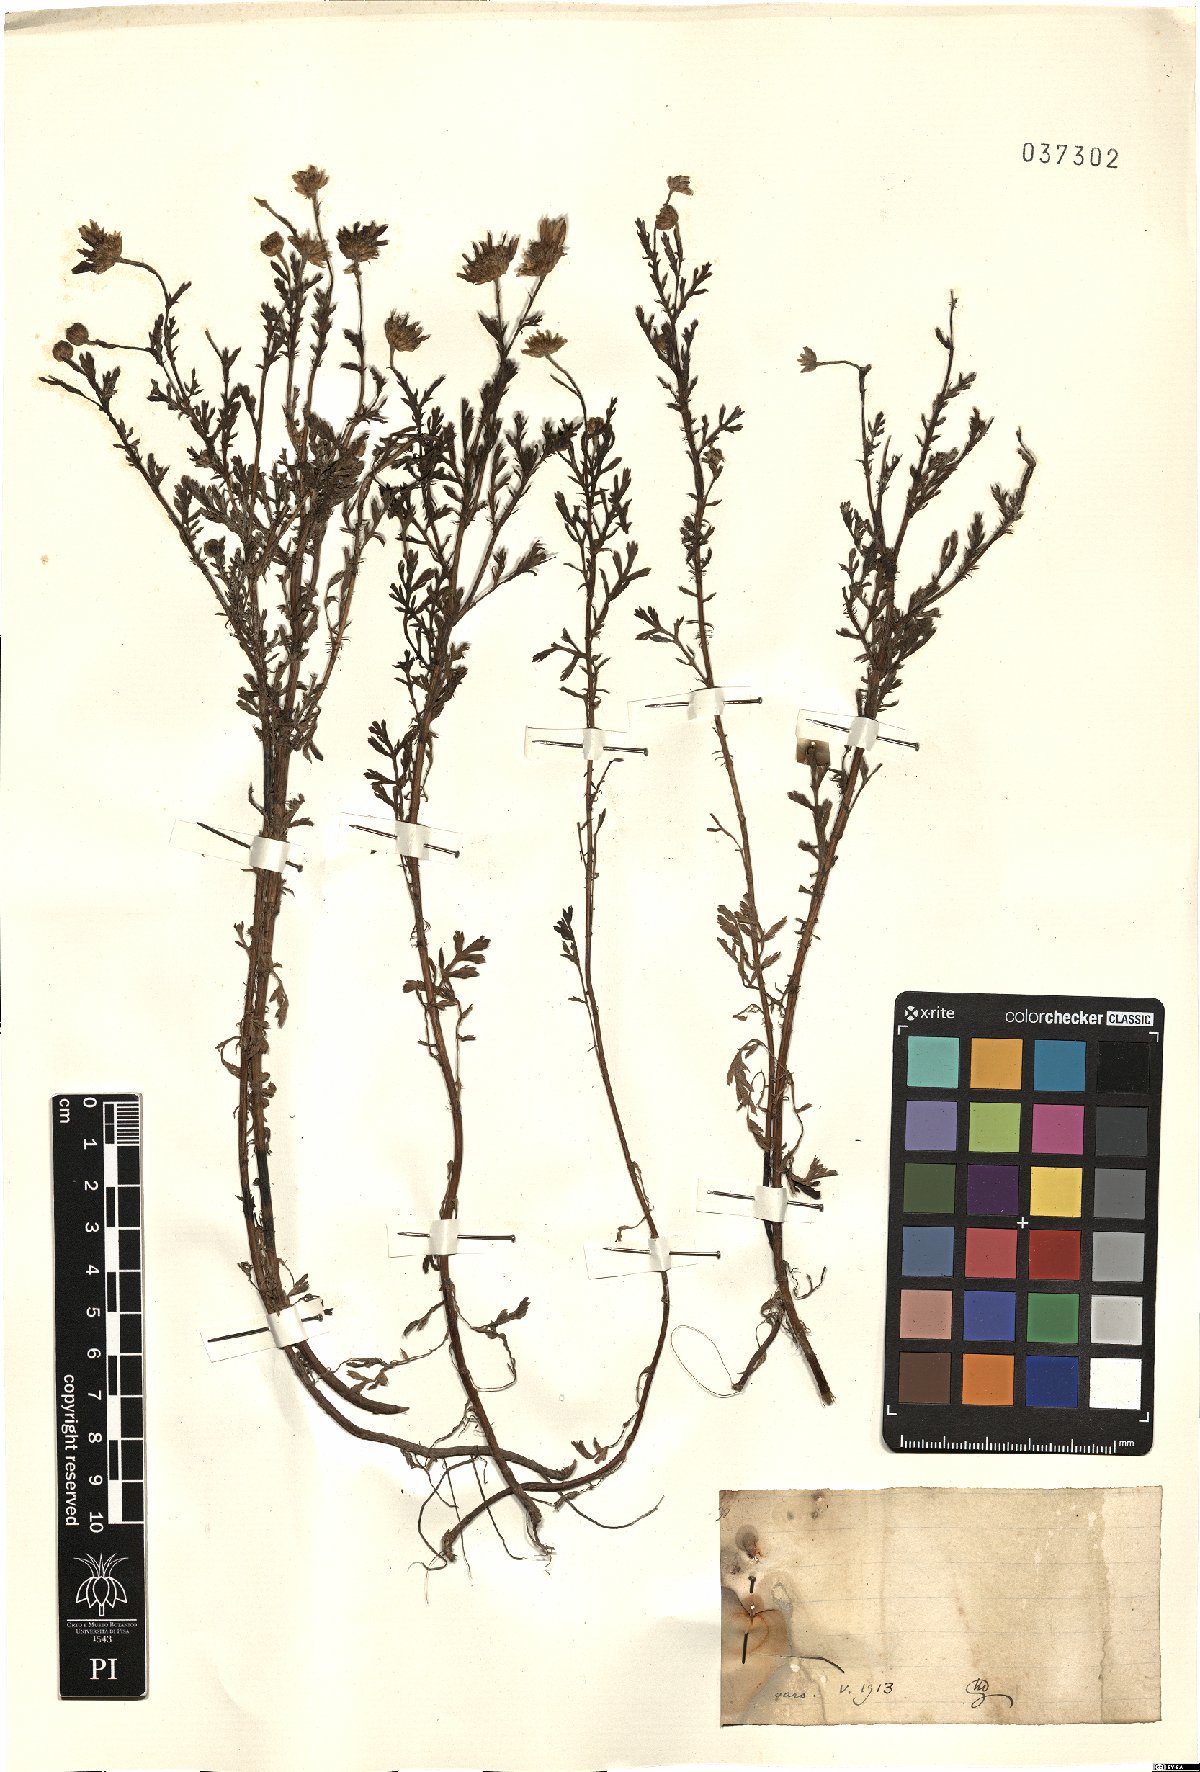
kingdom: Plantae
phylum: Tracheophyta
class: Magnoliopsida
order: Asterales
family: Asteraceae
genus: Anthemis
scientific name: Anthemis
